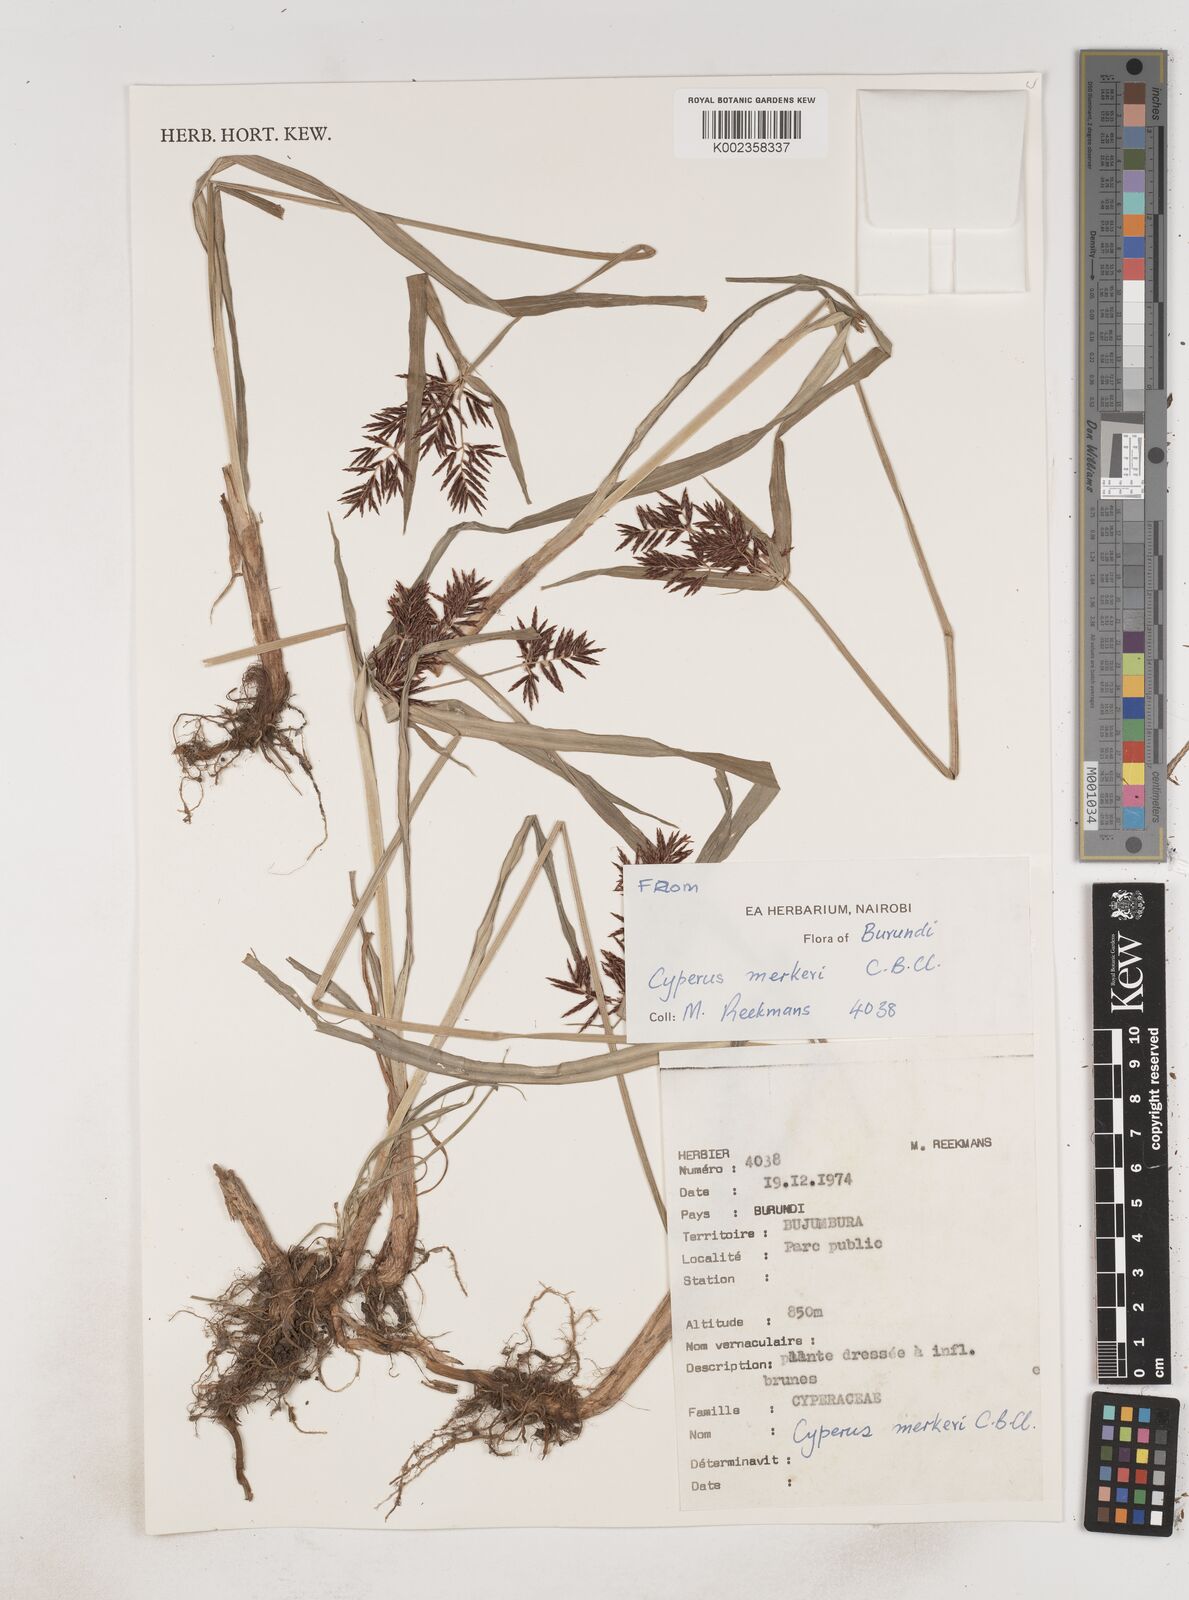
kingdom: Plantae
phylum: Tracheophyta
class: Liliopsida
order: Poales
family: Cyperaceae
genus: Cyperus
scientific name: Cyperus tuberosus
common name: Nut grass
